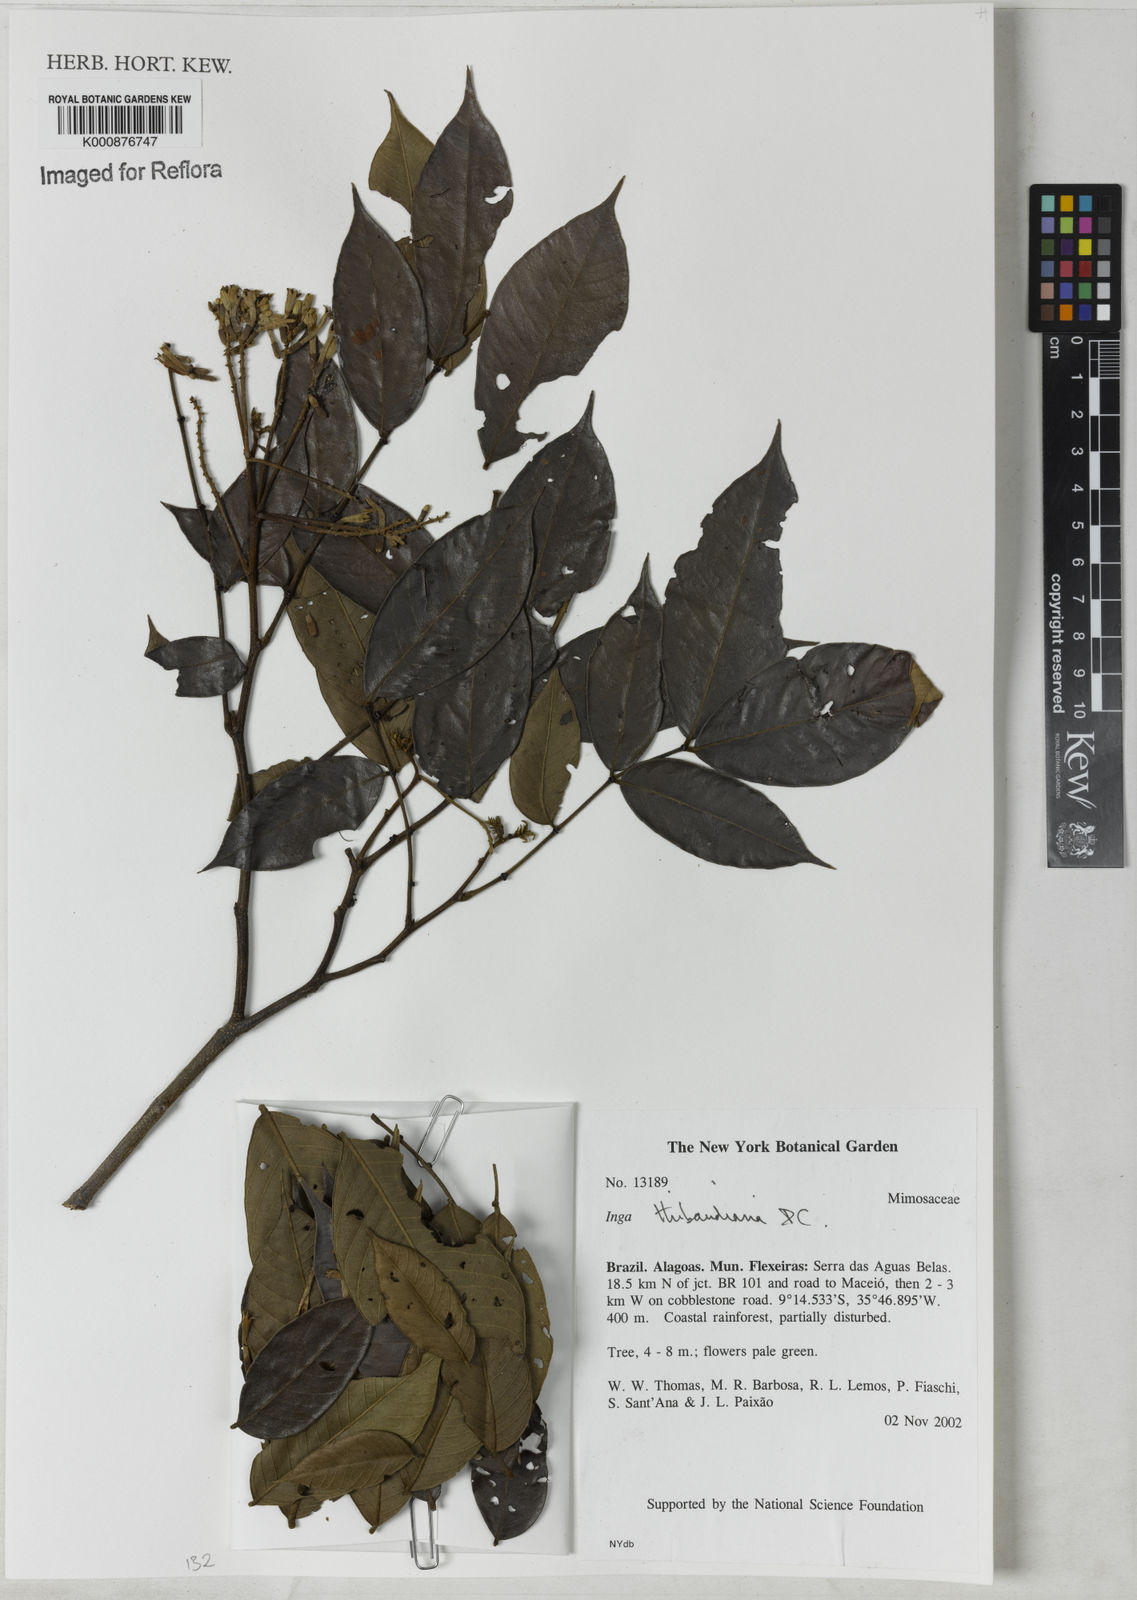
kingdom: Plantae
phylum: Tracheophyta
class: Magnoliopsida
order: Fabales
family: Fabaceae
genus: Inga
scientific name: Inga thibaudiana
